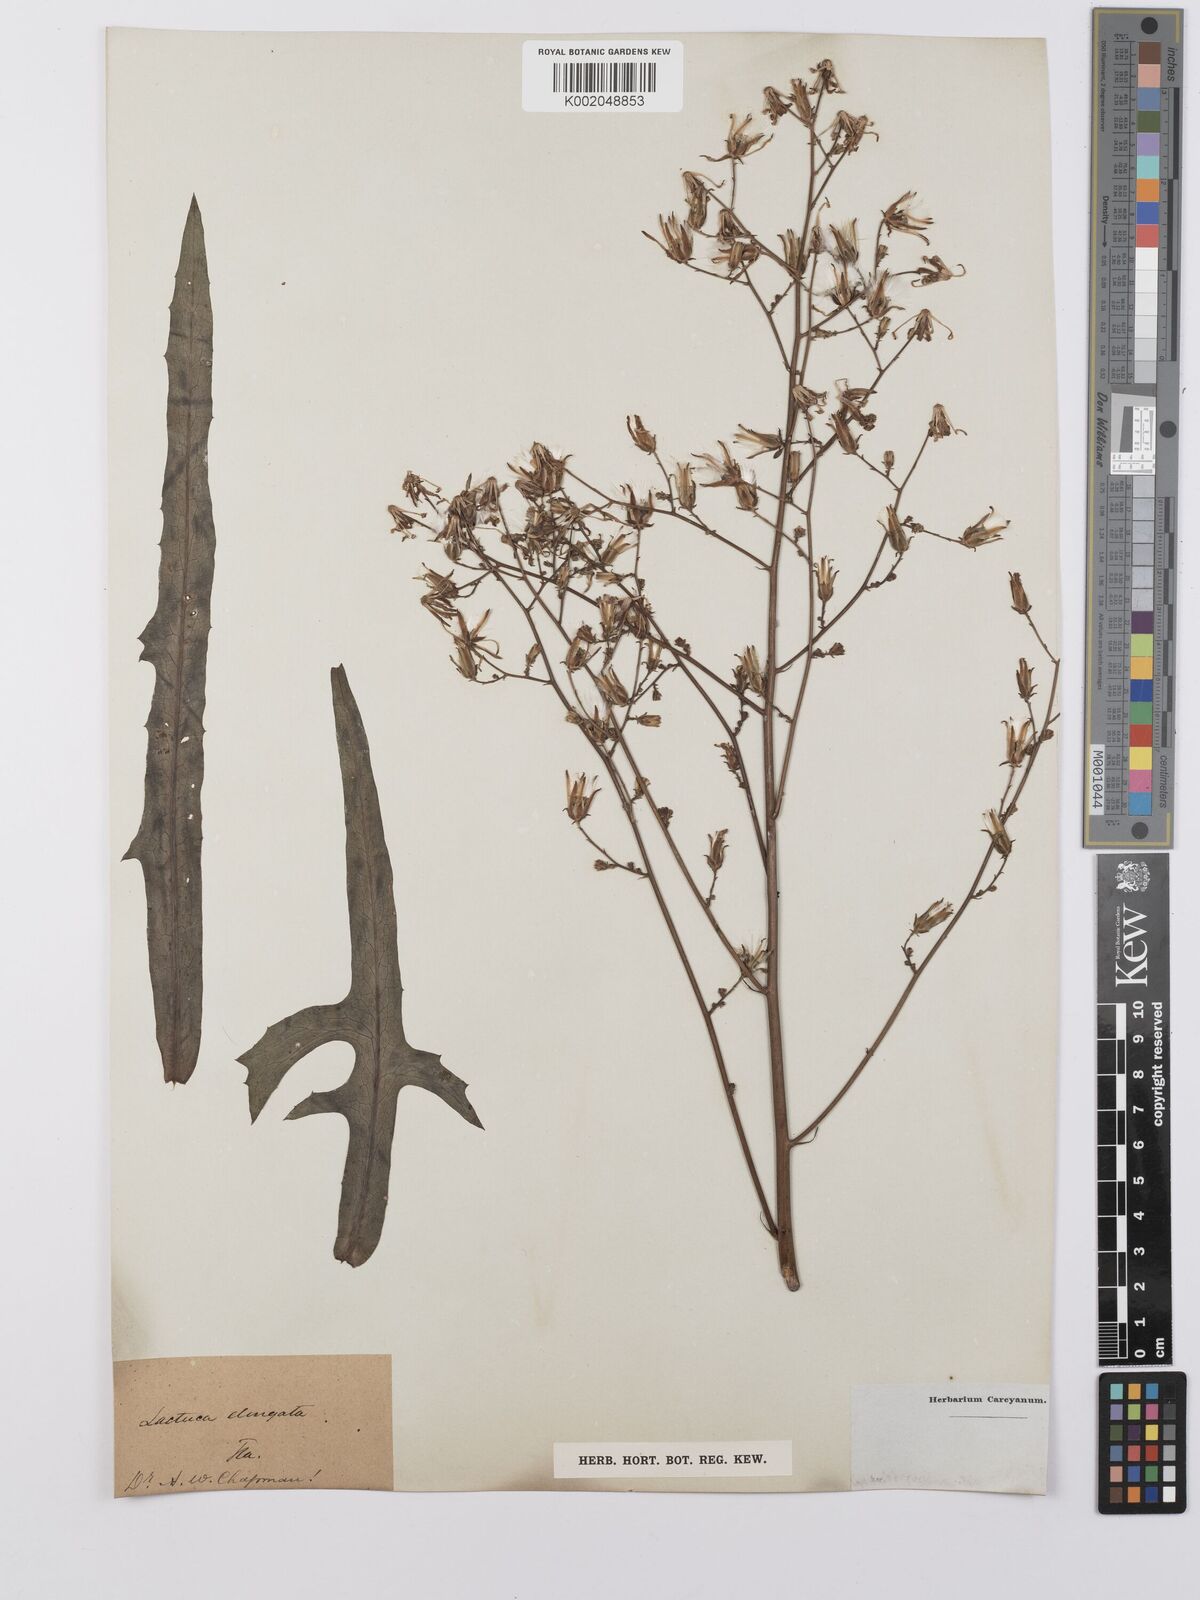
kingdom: Plantae
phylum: Tracheophyta
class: Magnoliopsida
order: Asterales
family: Asteraceae
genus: Lactuca
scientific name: Lactuca canadensis
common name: Canada lettuce
